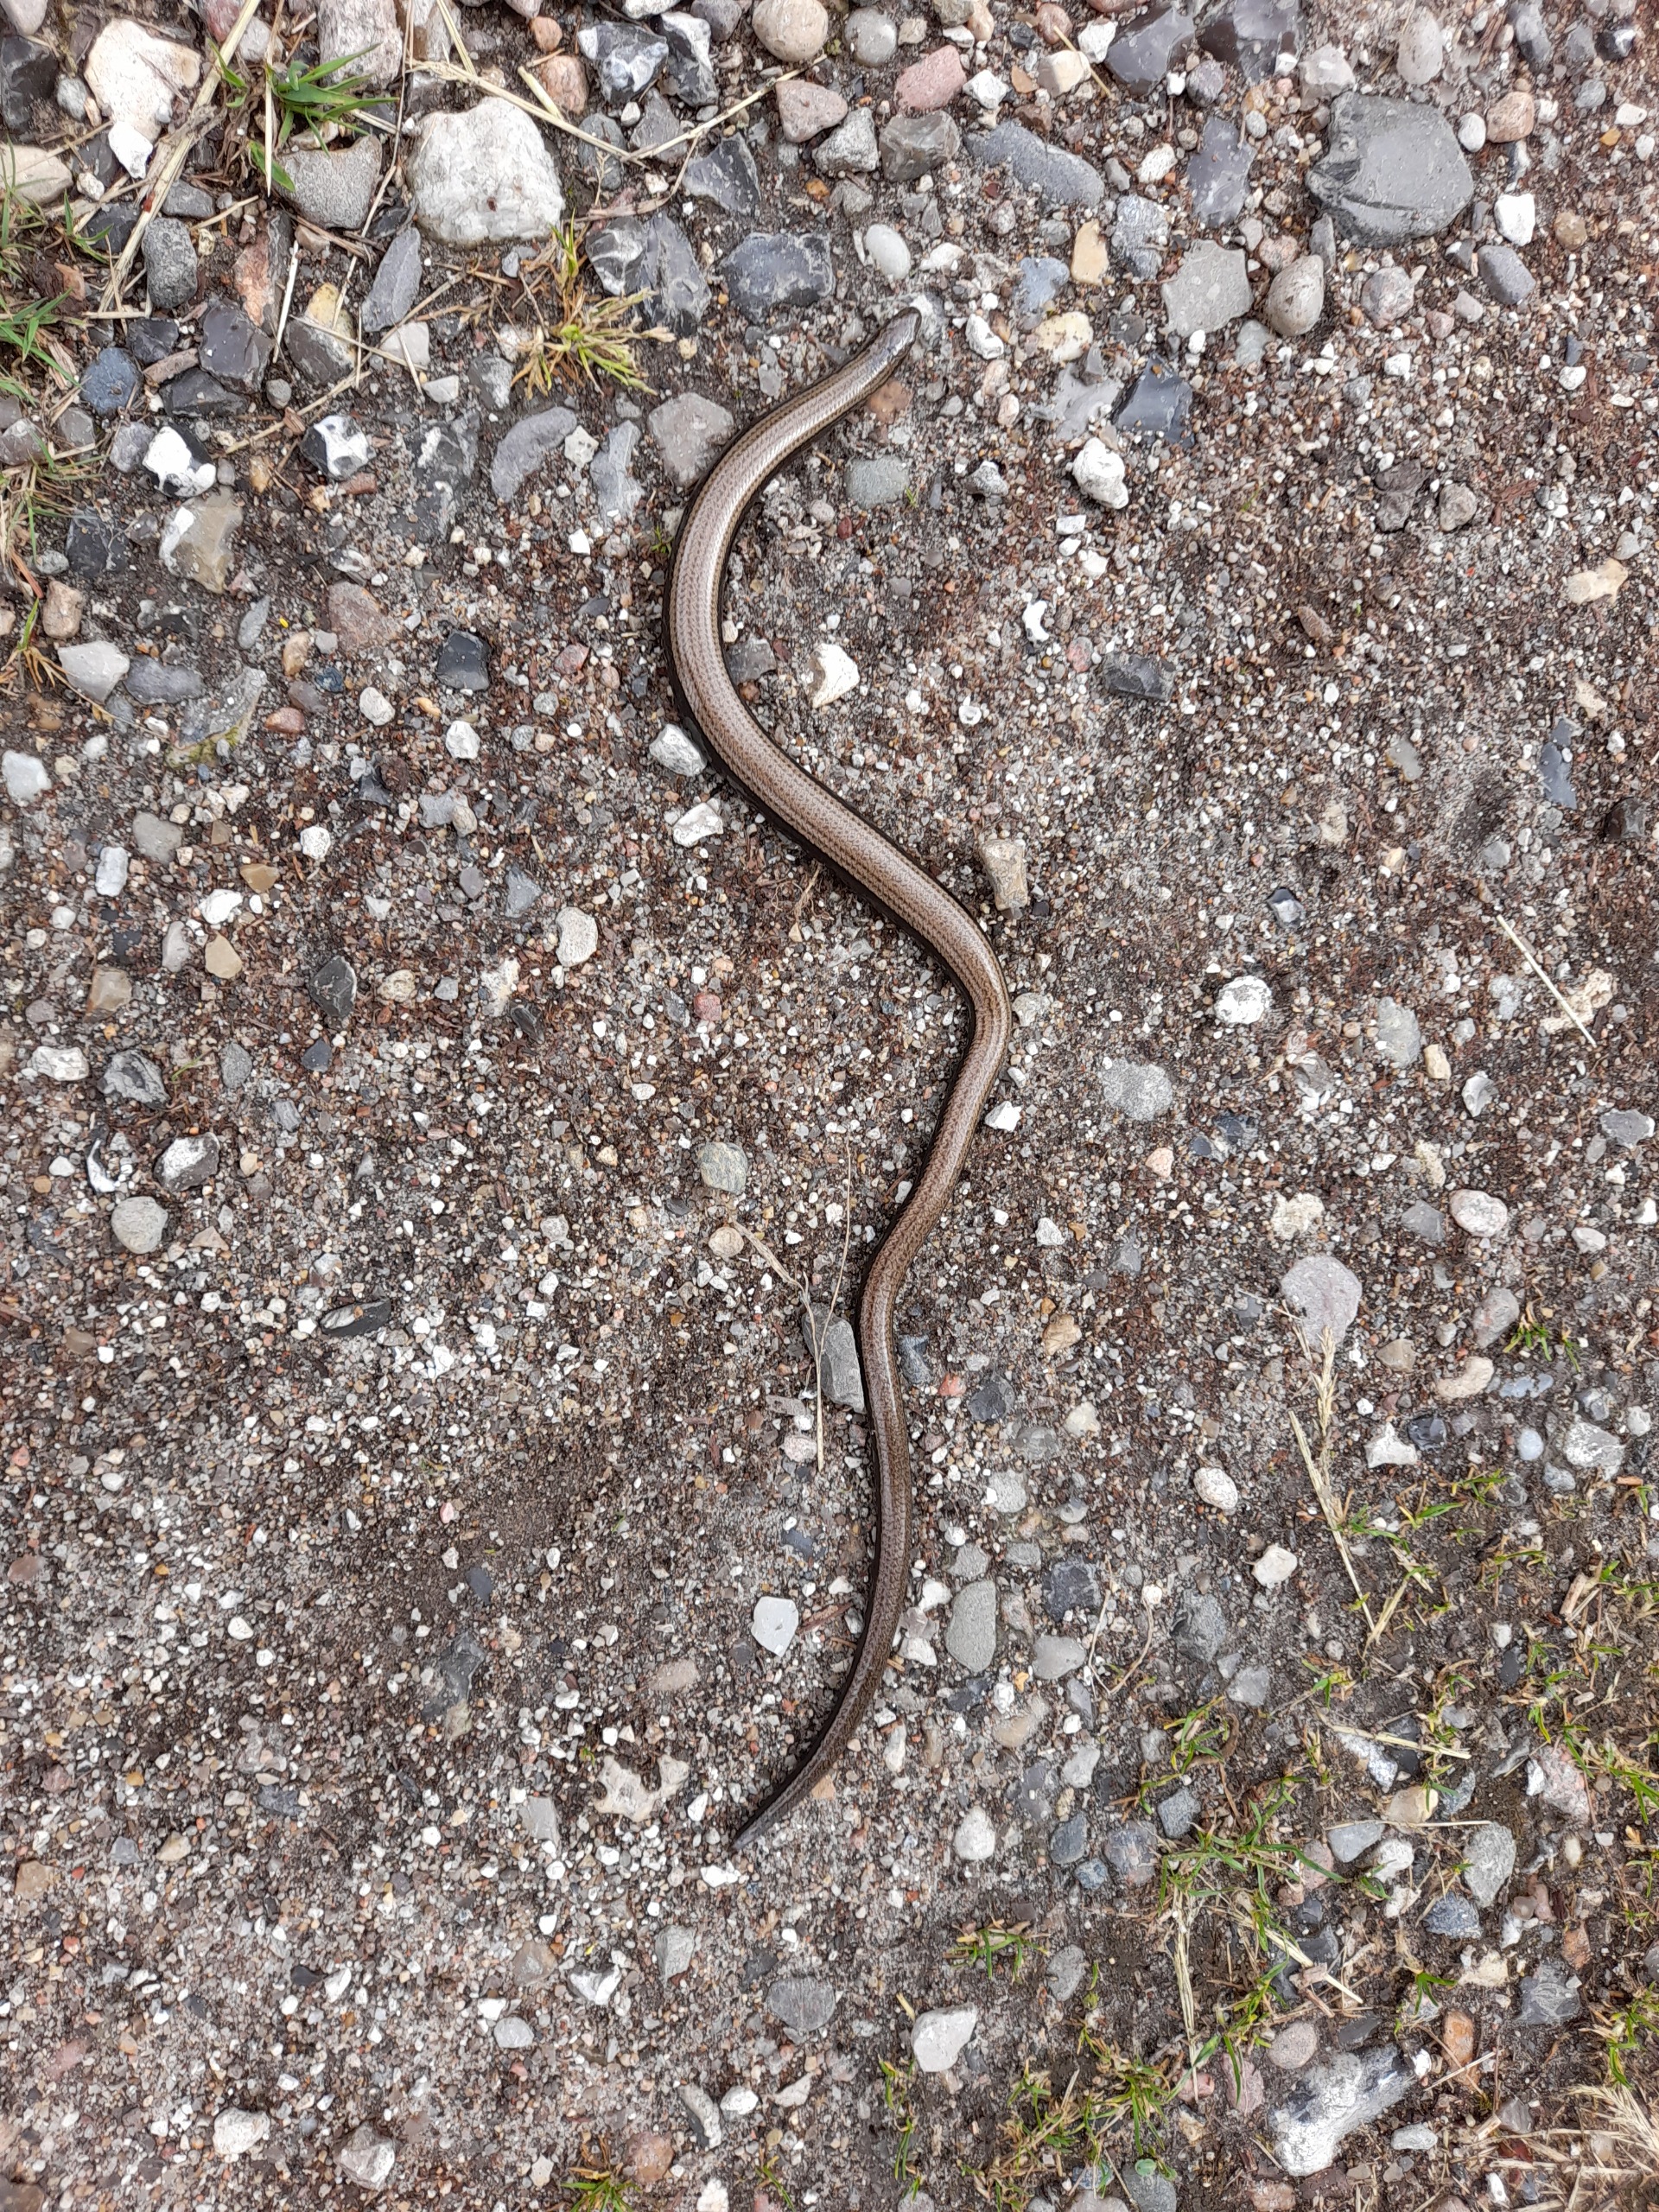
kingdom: Animalia
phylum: Chordata
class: Squamata
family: Anguidae
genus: Anguis
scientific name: Anguis fragilis
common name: Stålorm
